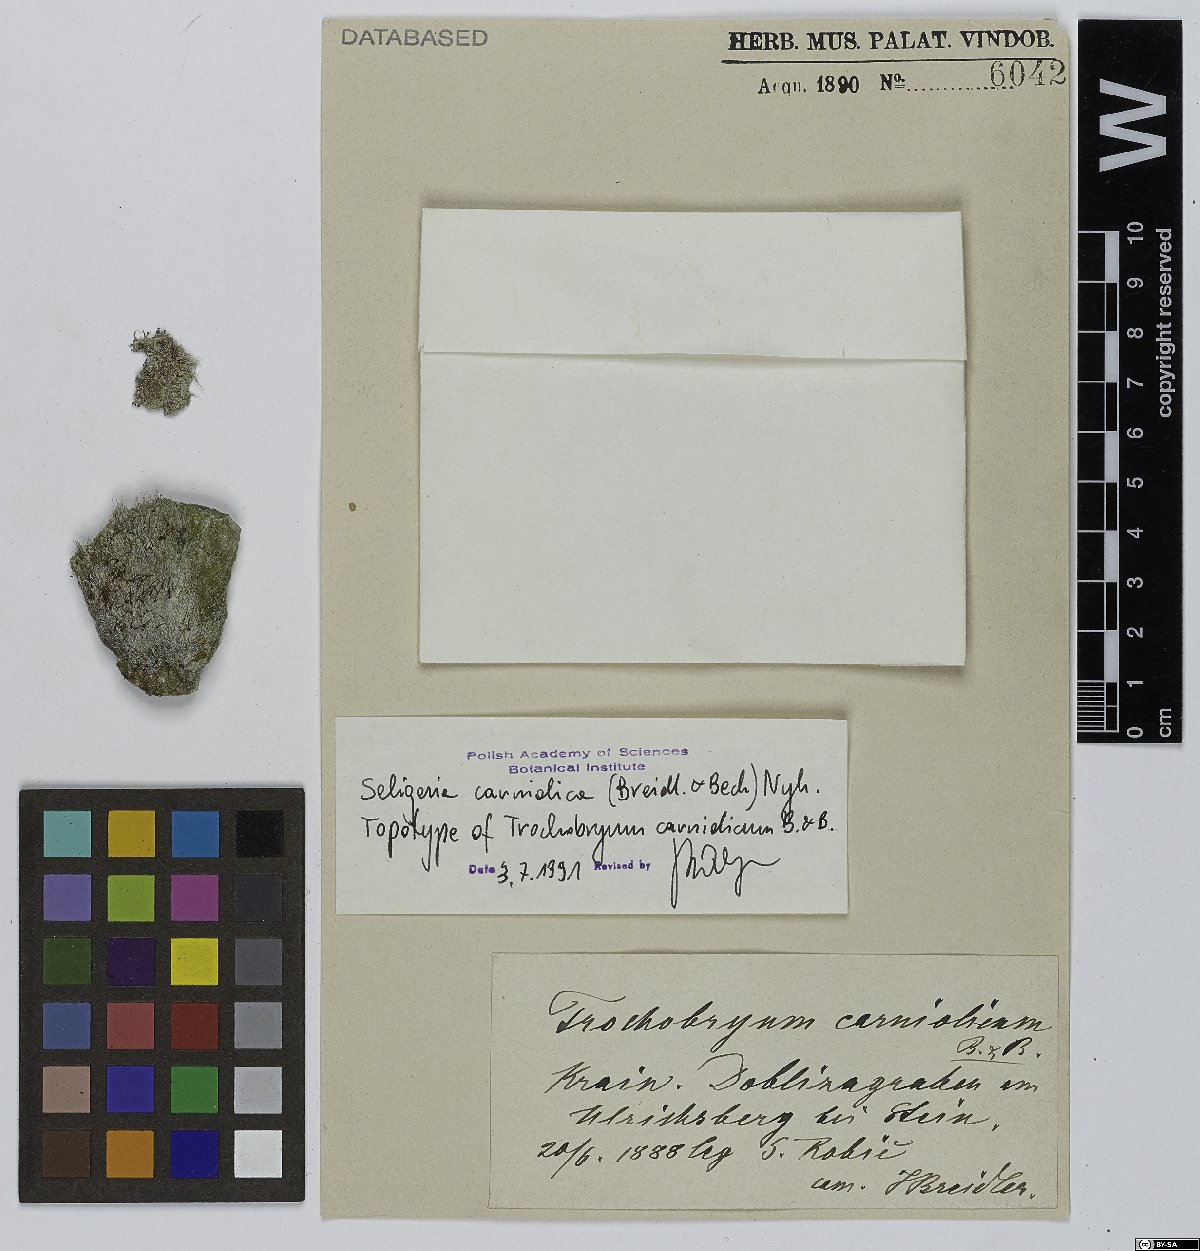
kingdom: Plantae
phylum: Bryophyta
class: Bryopsida
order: Grimmiales
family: Seligeriaceae
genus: Seligeria
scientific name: Seligeria carniolica
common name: Water rock-bristle
